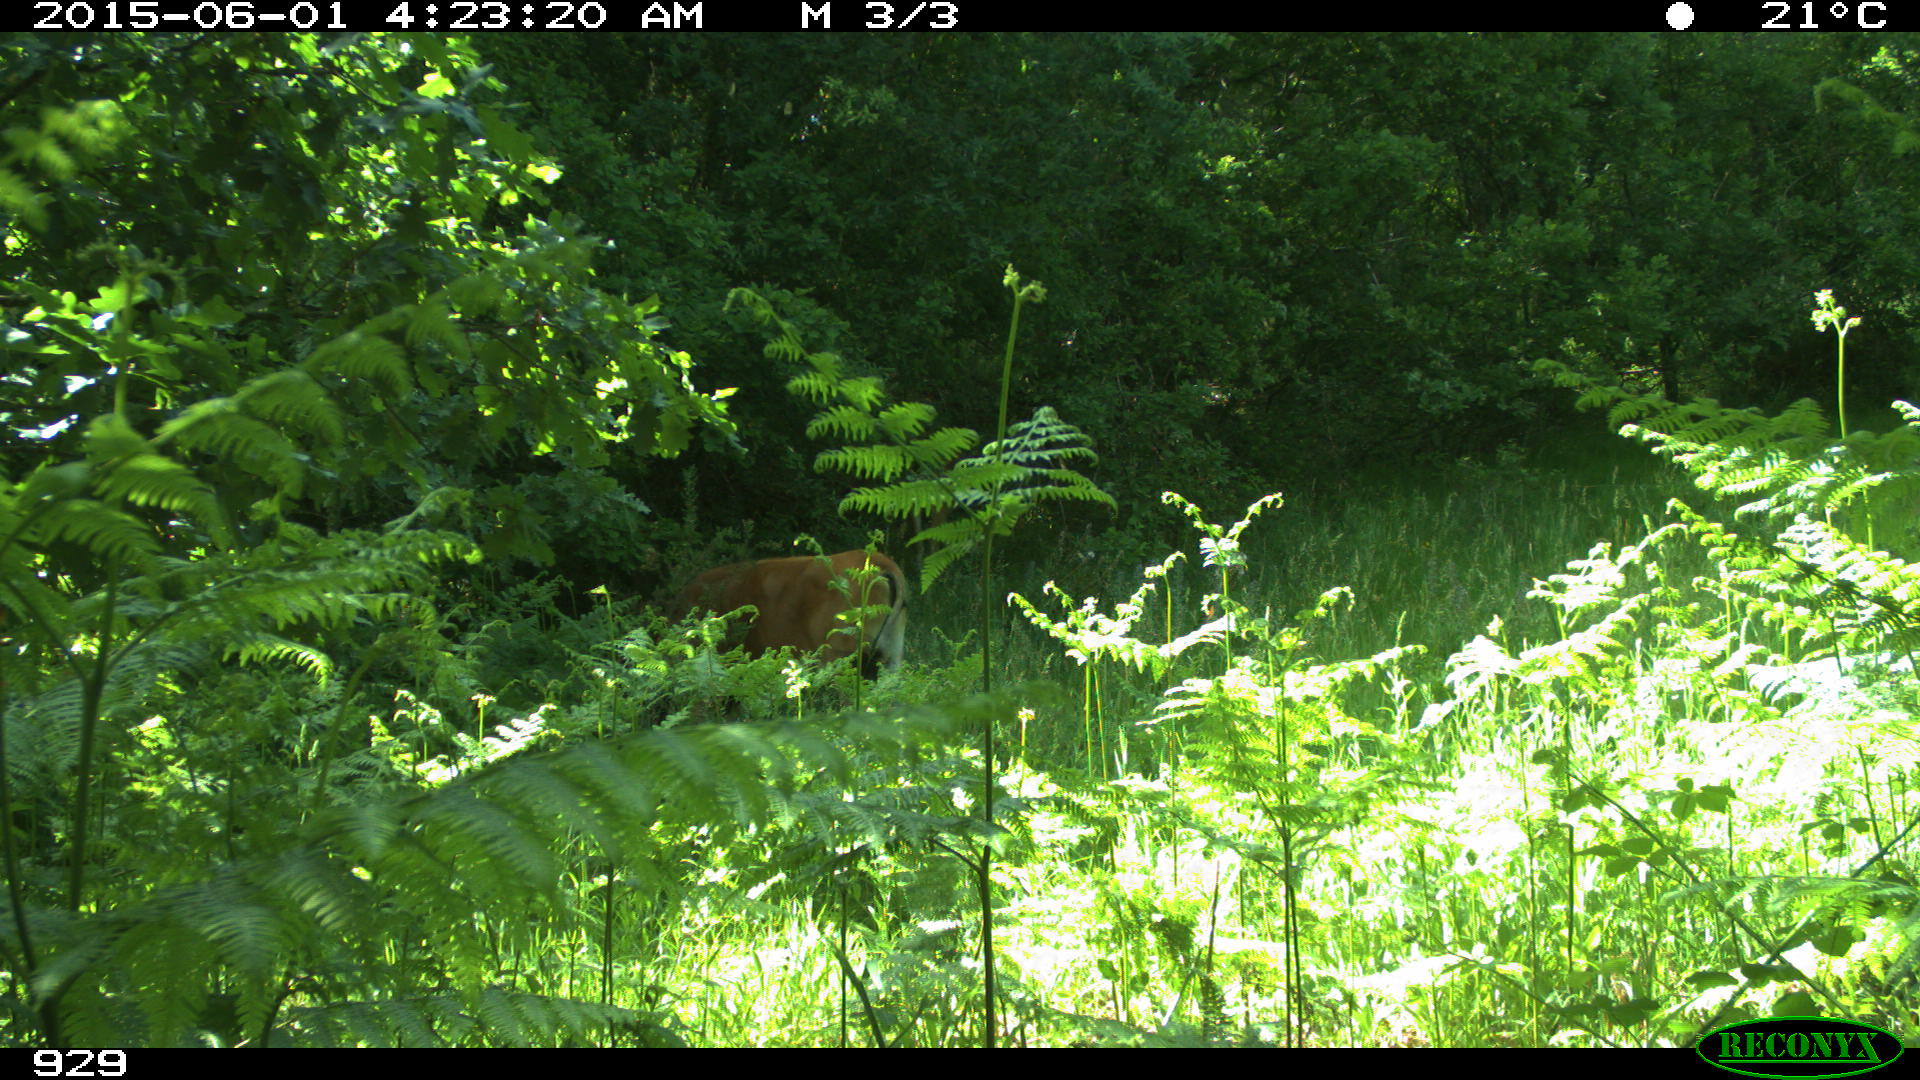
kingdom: Animalia
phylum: Chordata
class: Mammalia
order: Artiodactyla
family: Bovidae
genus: Bos
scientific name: Bos taurus
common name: Domesticated cattle
